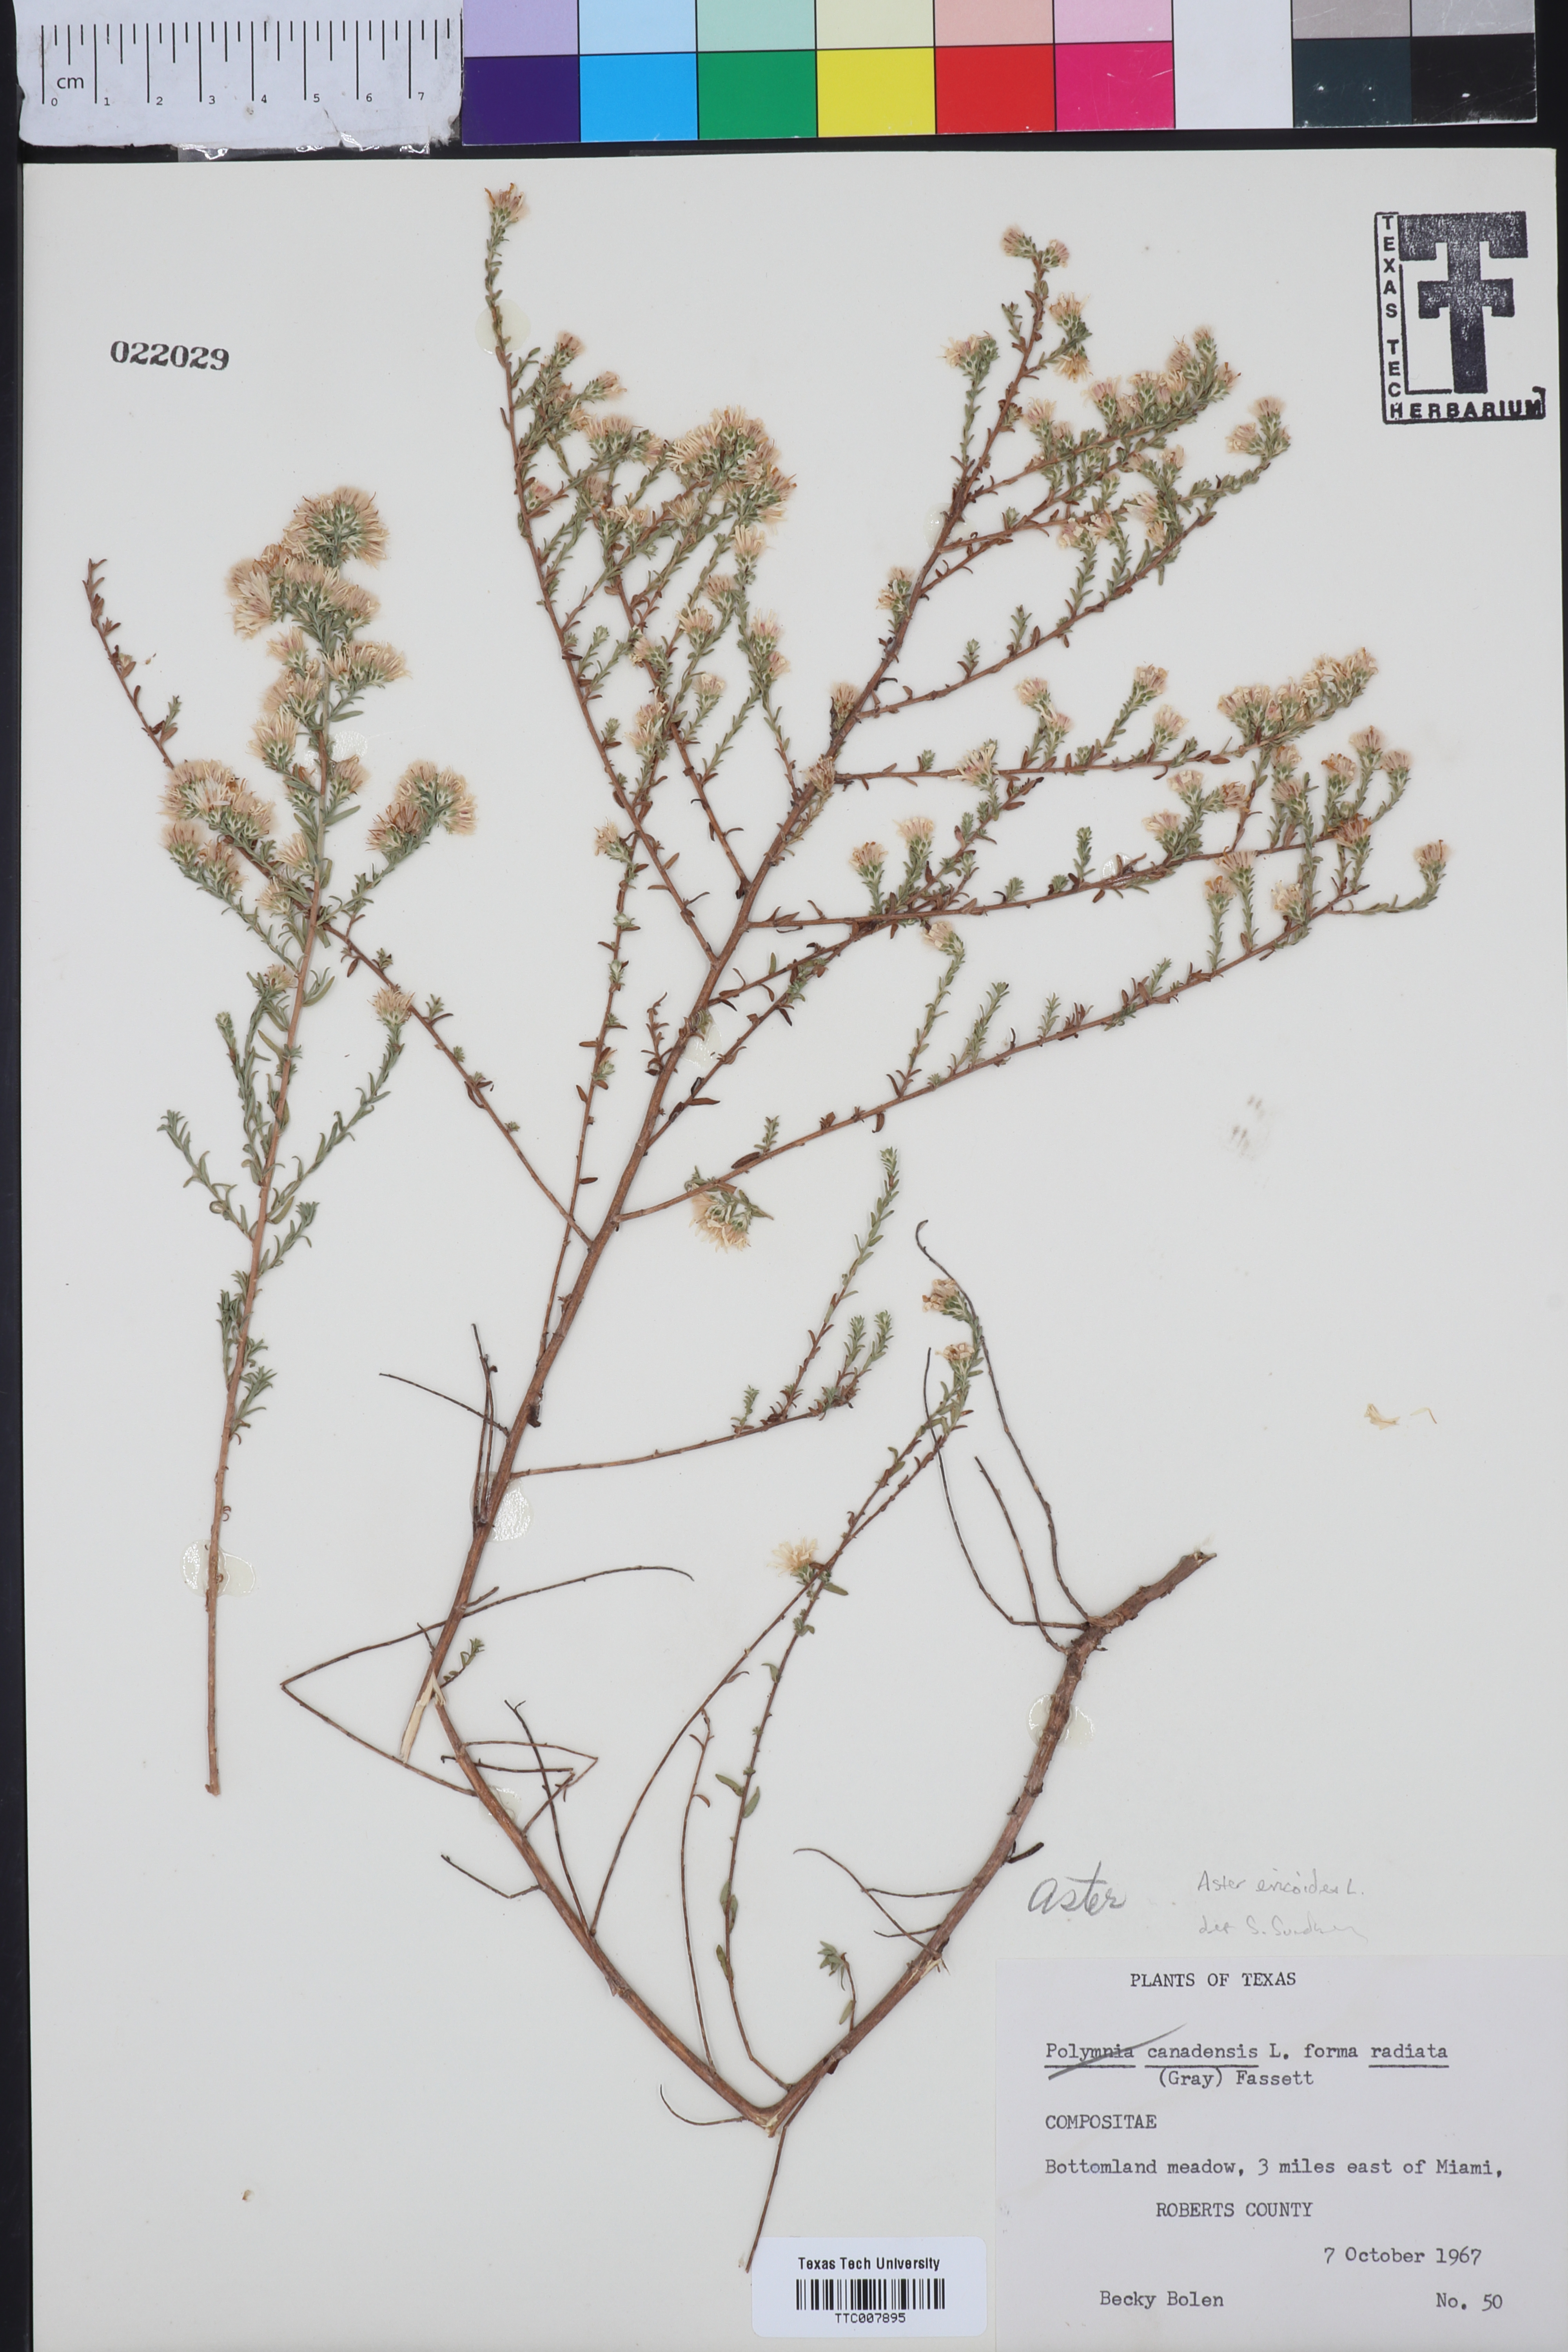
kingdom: Plantae
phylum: Tracheophyta
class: Magnoliopsida
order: Asterales
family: Asteraceae
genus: Symphyotrichum
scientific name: Symphyotrichum ericoides
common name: Heath aster
